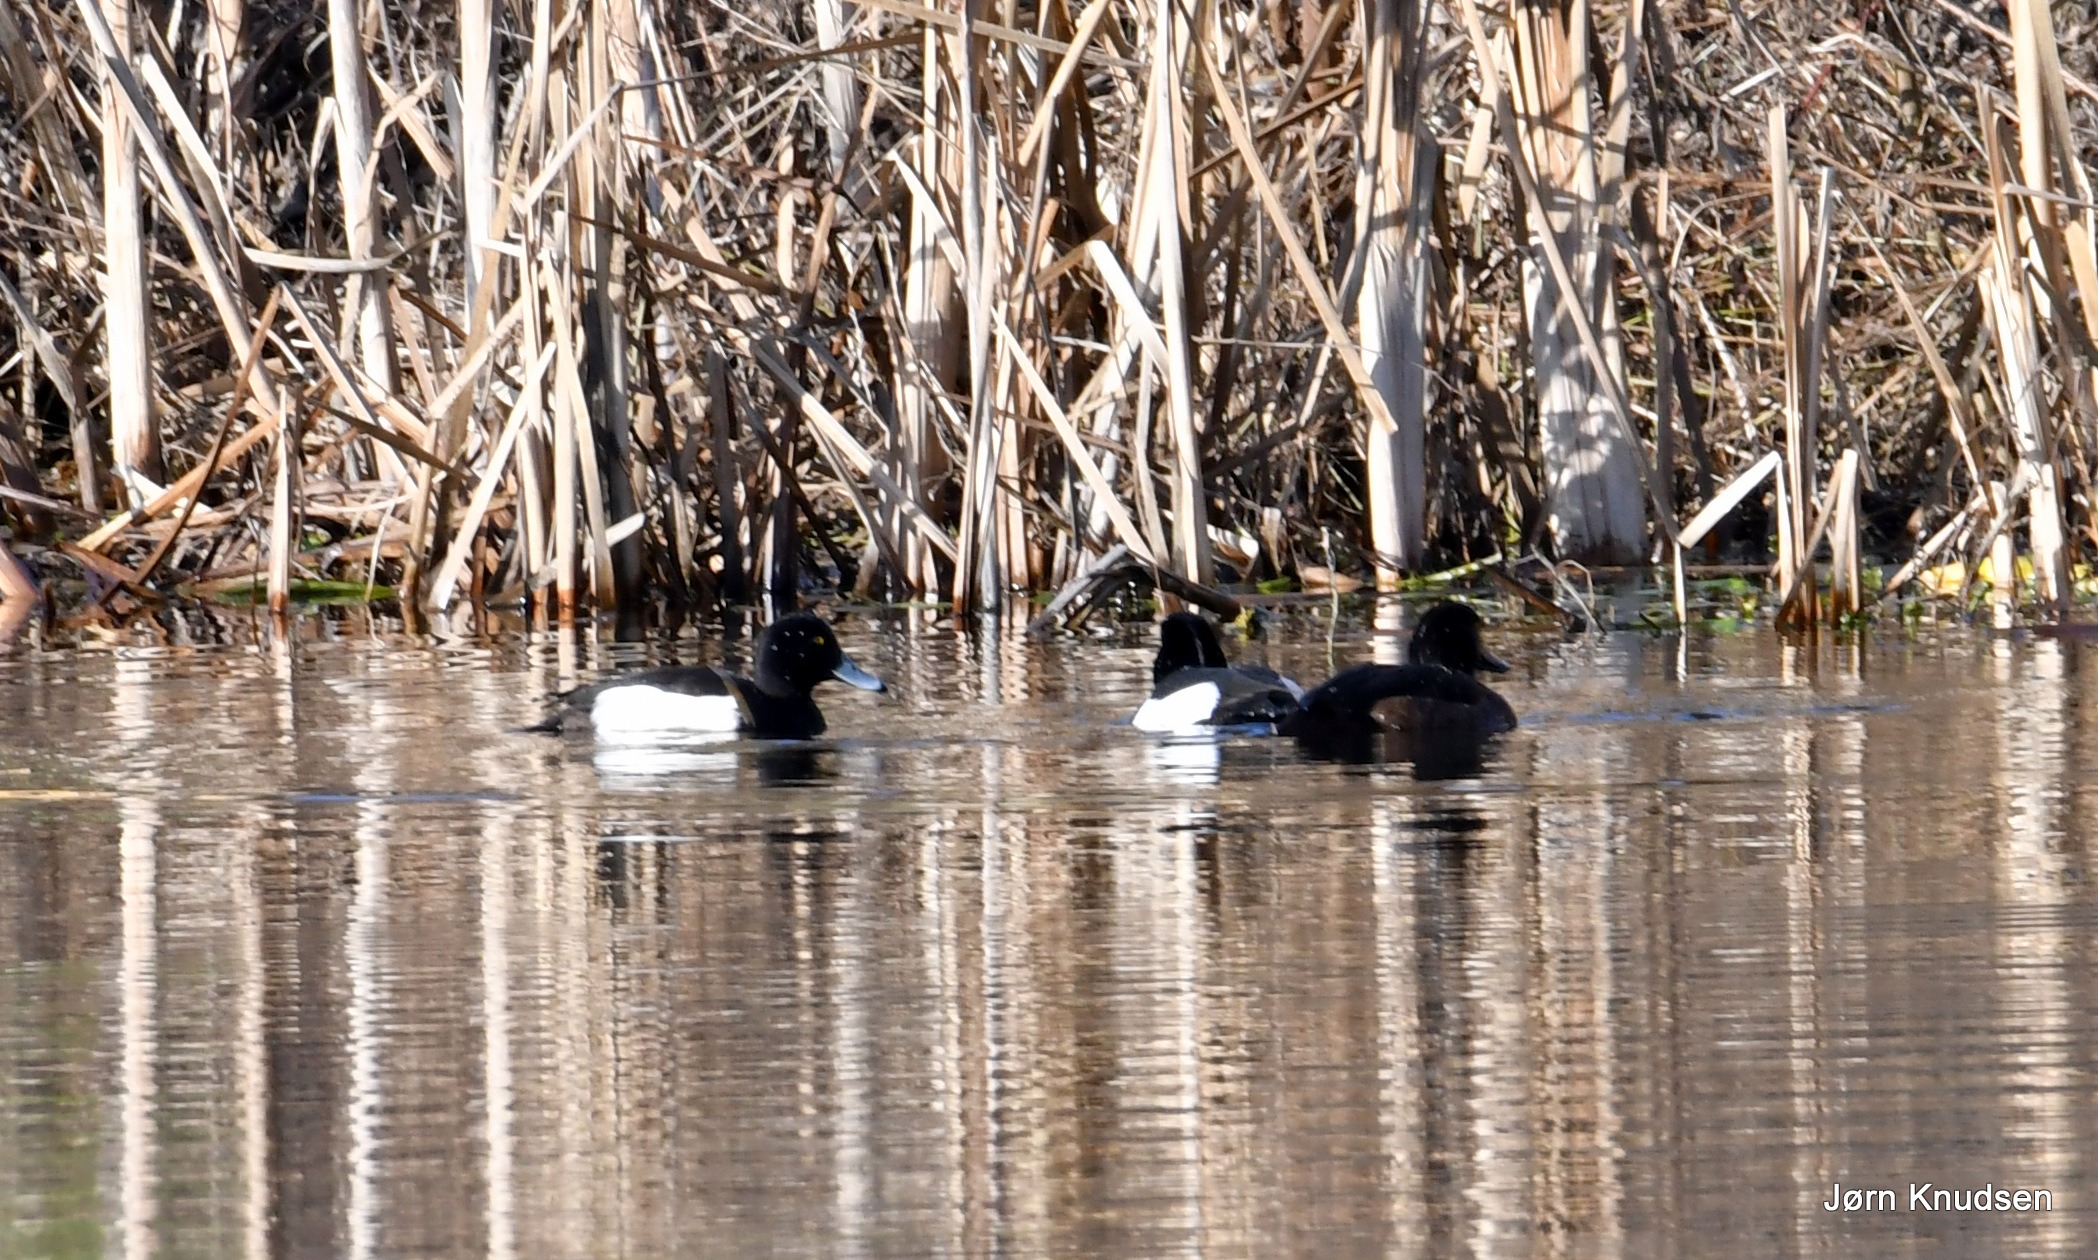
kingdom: Animalia
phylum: Chordata
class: Aves
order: Anseriformes
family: Anatidae
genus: Aythya
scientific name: Aythya fuligula
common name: Troldand
